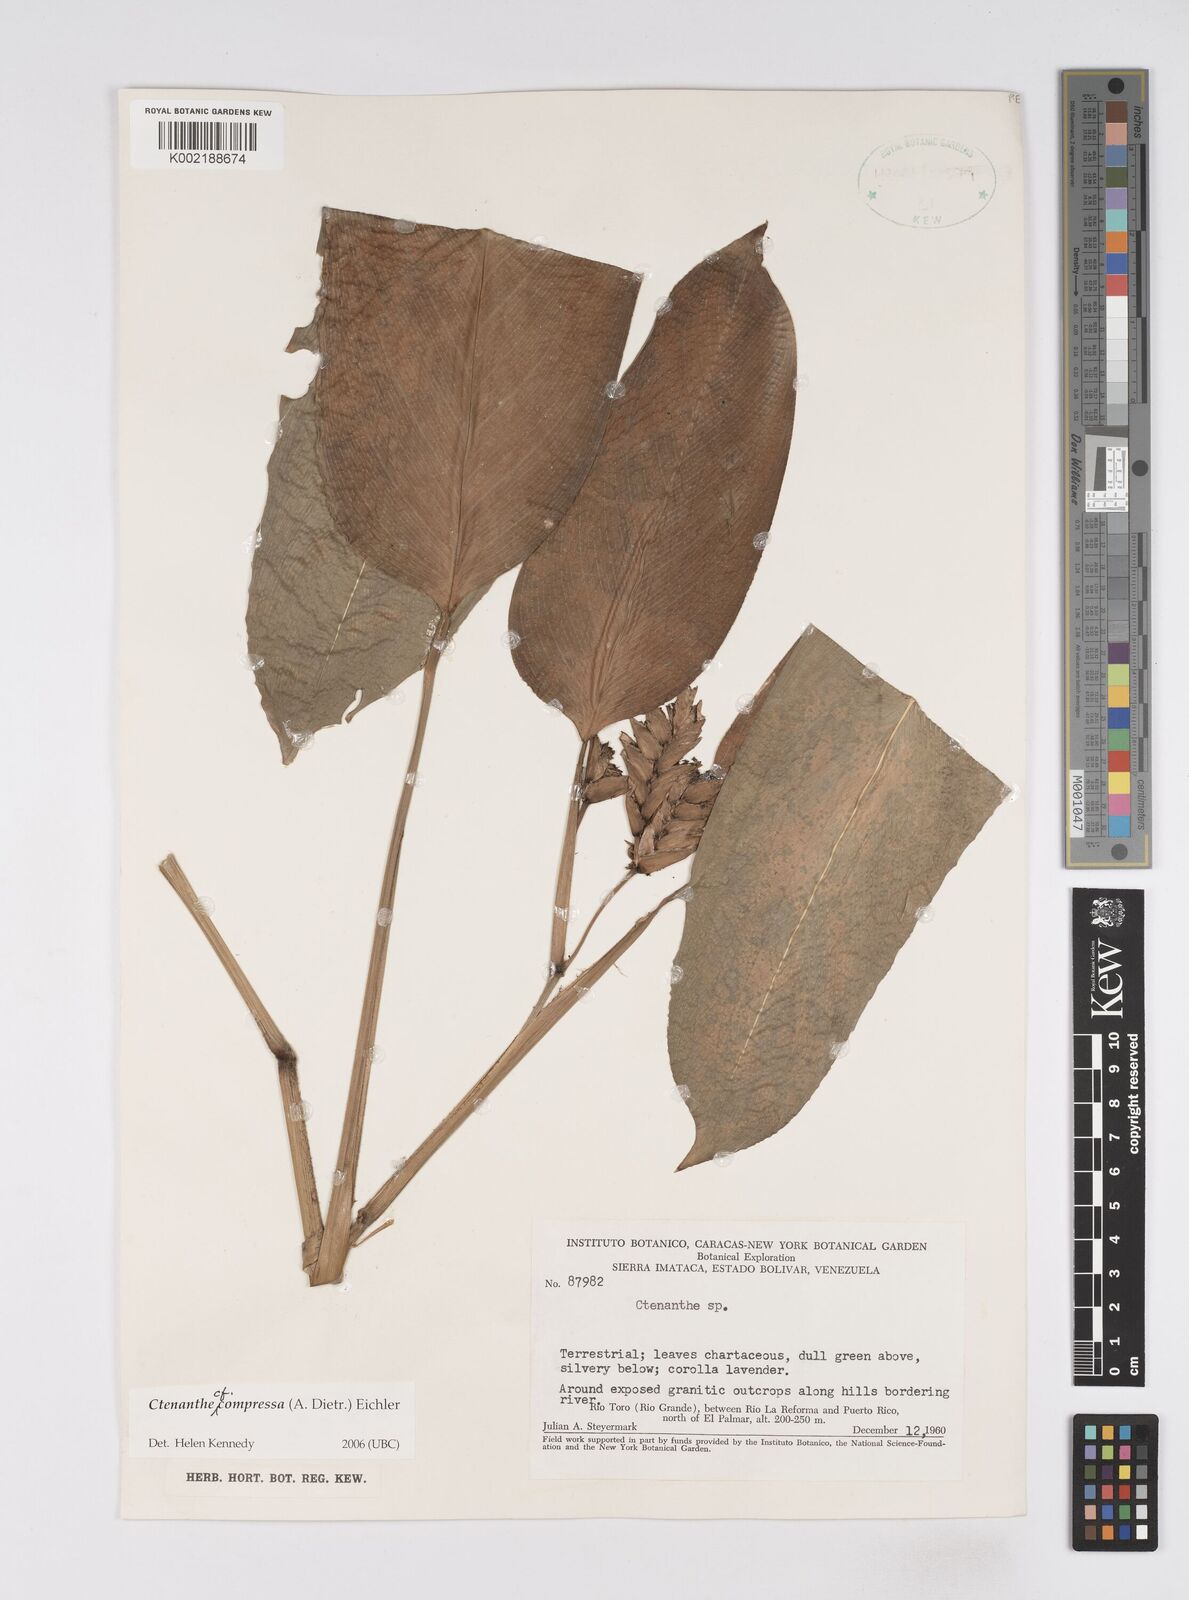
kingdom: Plantae
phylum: Tracheophyta
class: Liliopsida
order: Zingiberales
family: Marantaceae
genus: Ctenanthe
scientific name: Ctenanthe compressa
